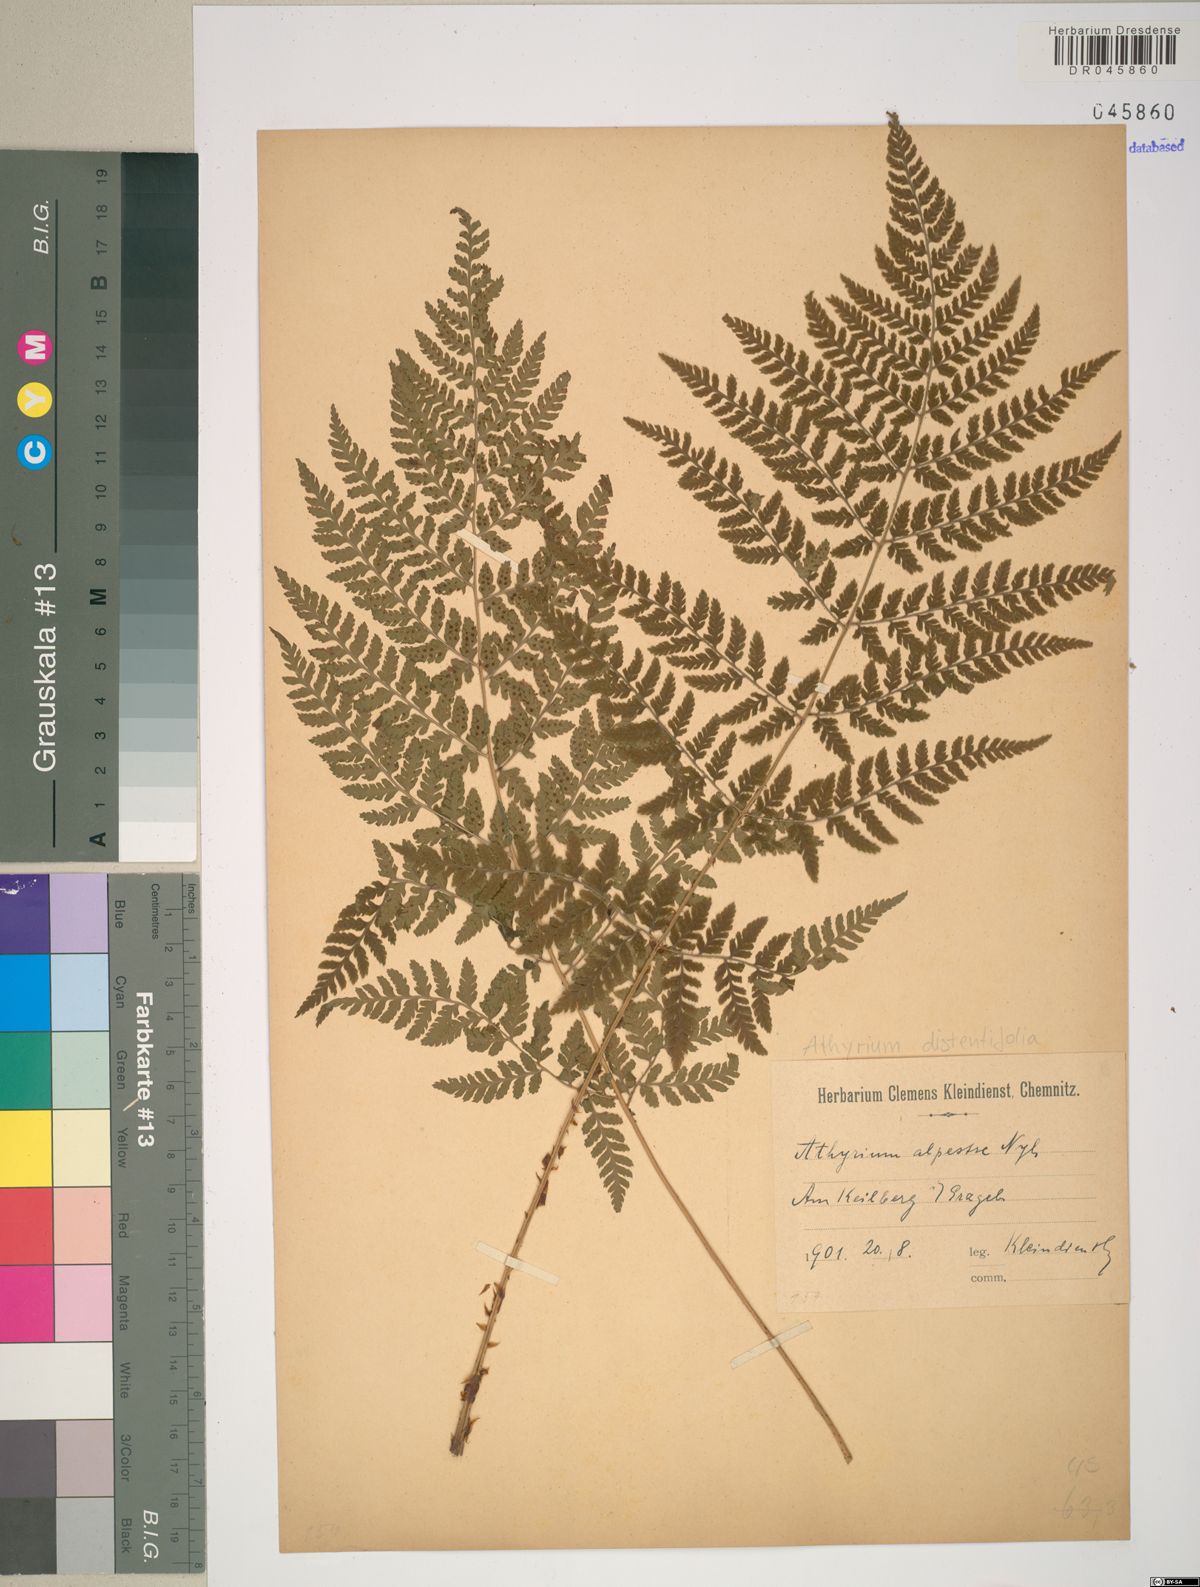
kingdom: Plantae
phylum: Tracheophyta
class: Polypodiopsida
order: Polypodiales
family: Athyriaceae
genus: Pseudathyrium
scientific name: Pseudathyrium alpestre
